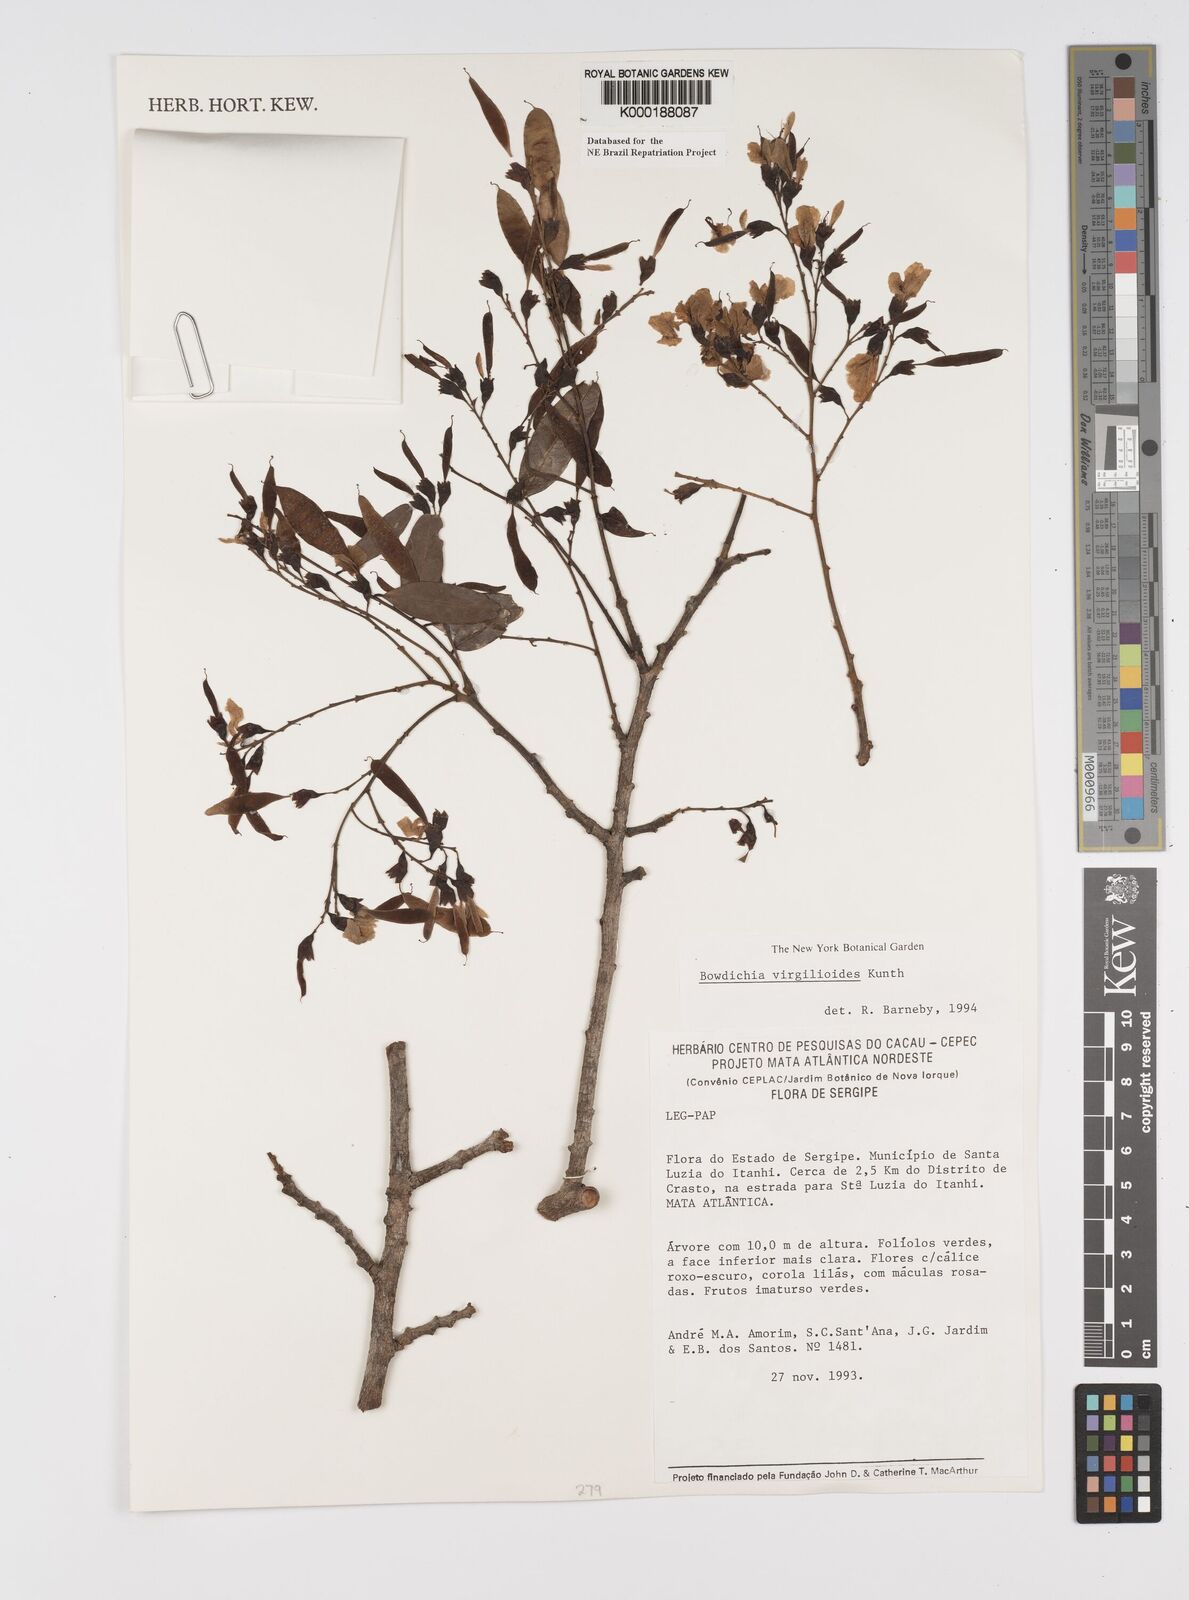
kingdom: Plantae
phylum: Tracheophyta
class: Magnoliopsida
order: Fabales
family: Fabaceae
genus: Bowdichia
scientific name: Bowdichia virgilioides
